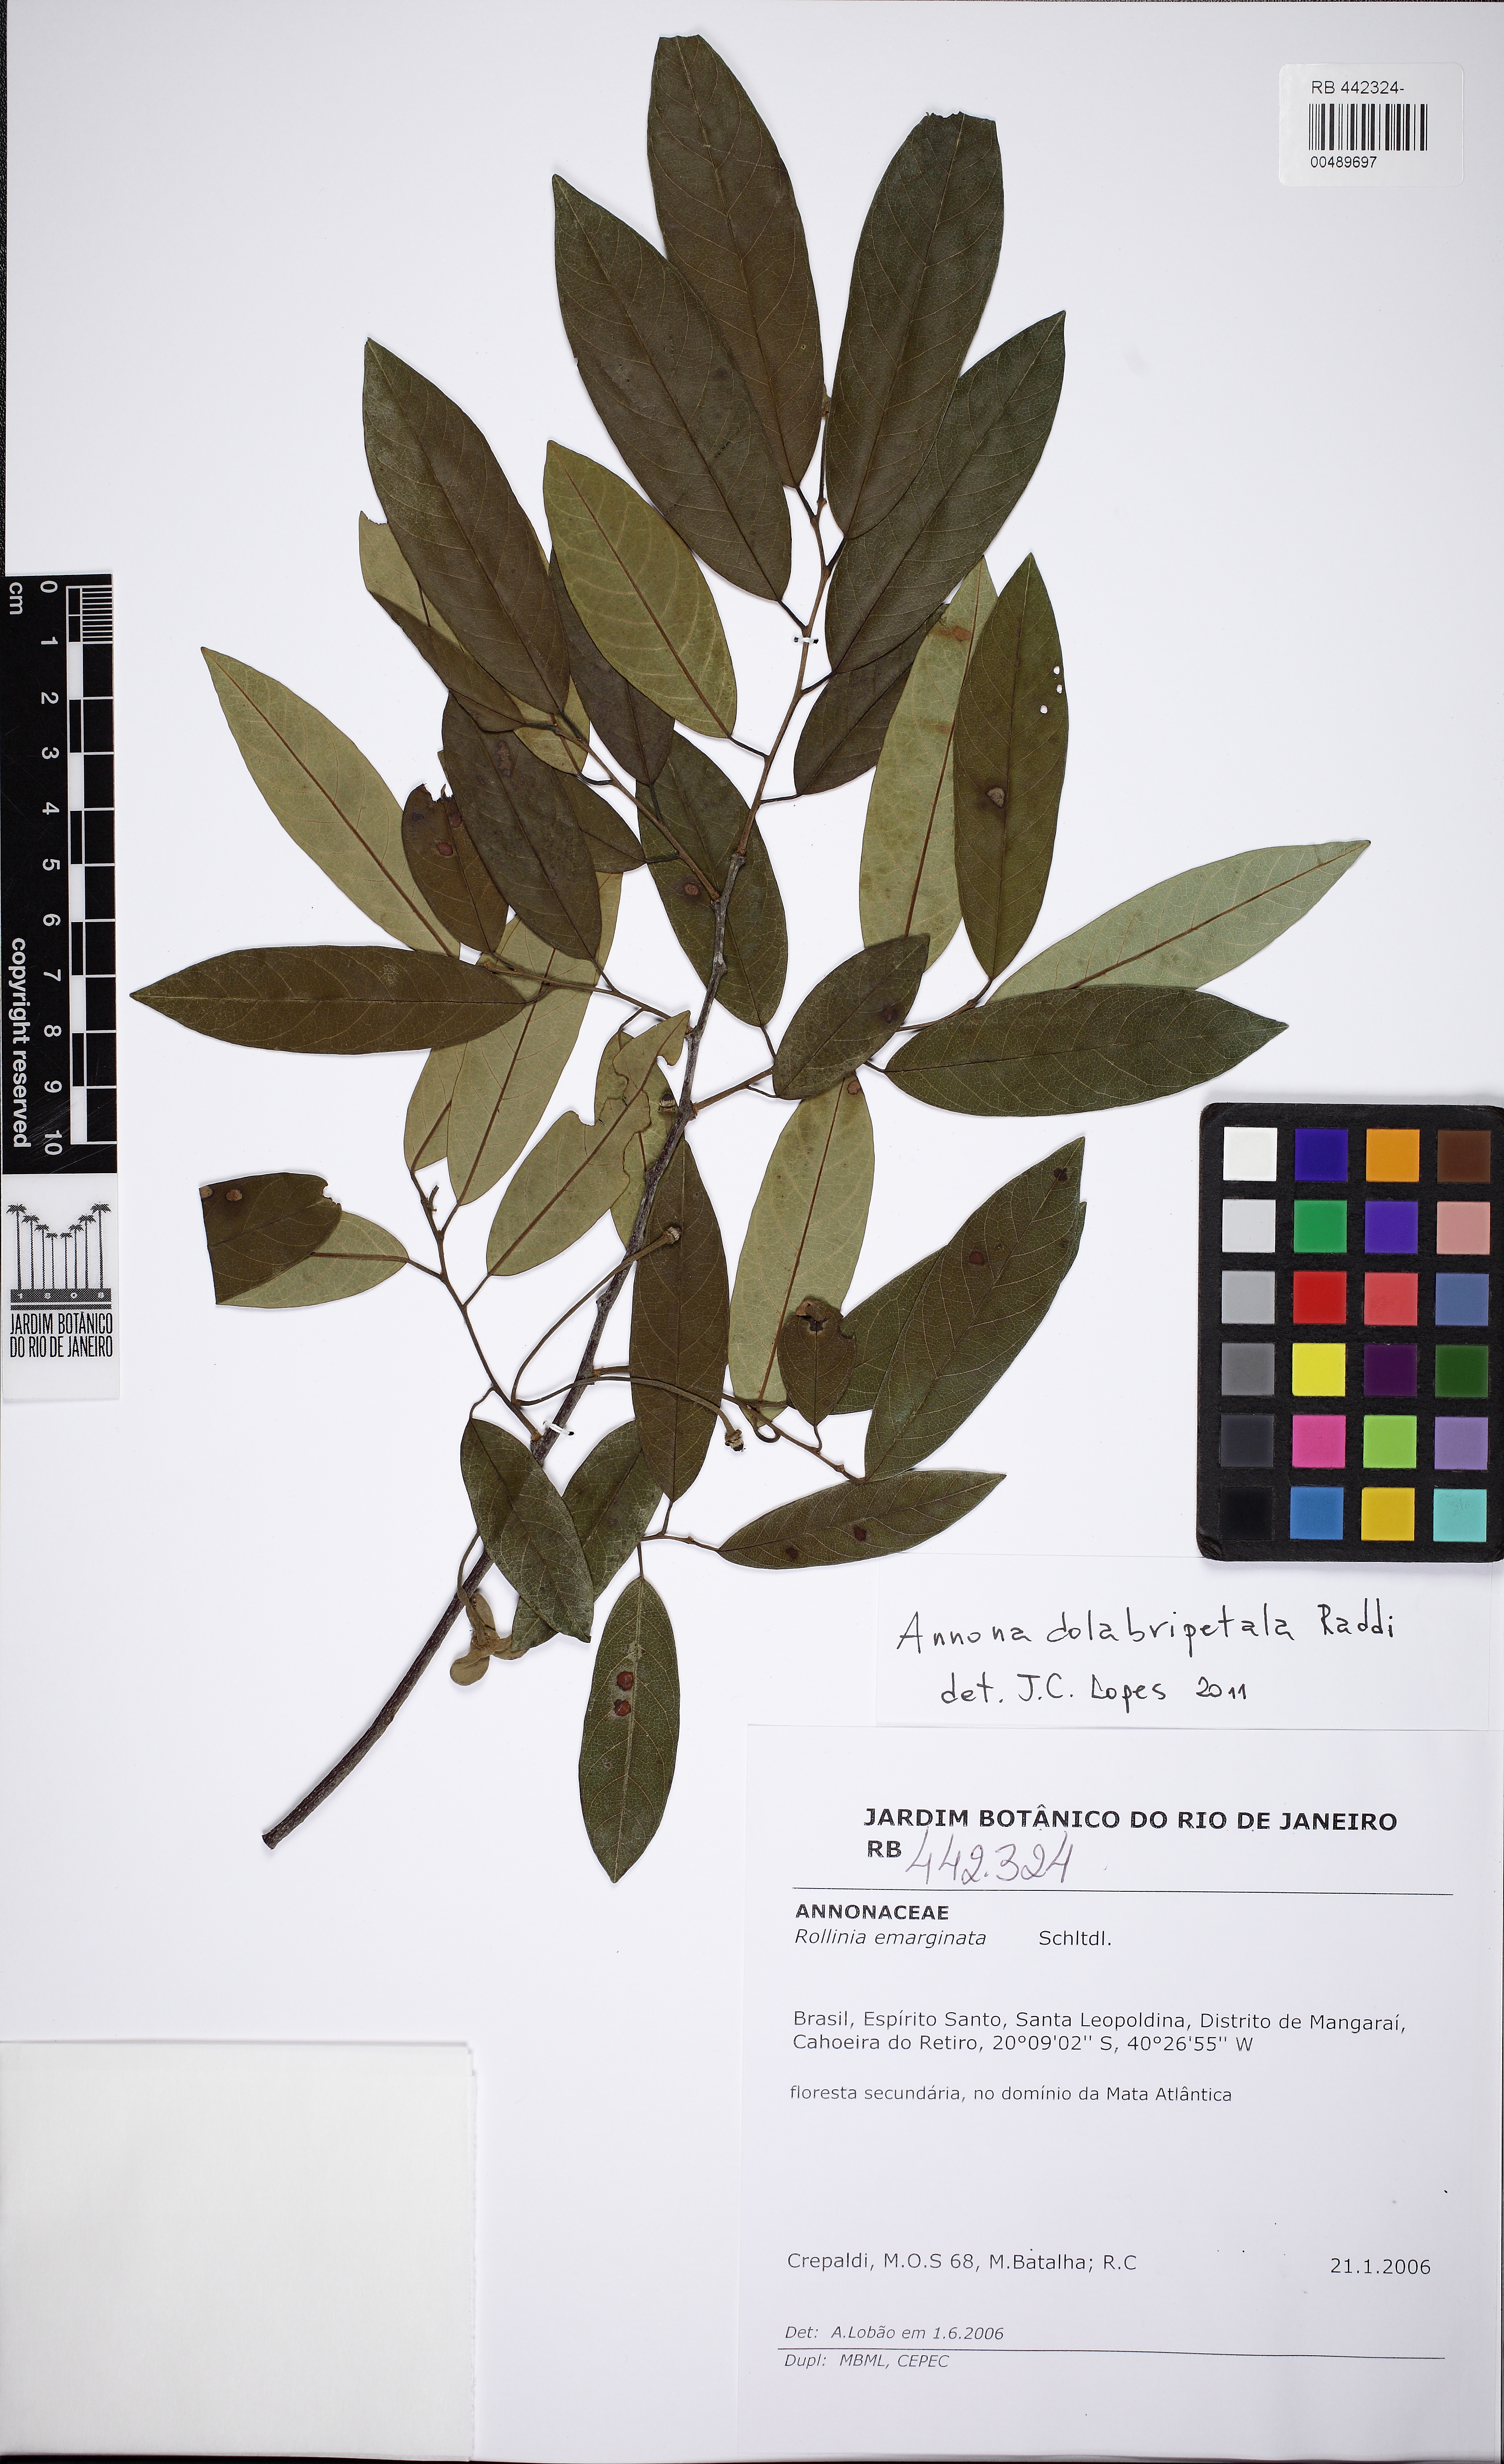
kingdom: Plantae
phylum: Tracheophyta
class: Magnoliopsida
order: Magnoliales
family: Annonaceae
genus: Annona
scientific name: Annona dolabripetala
